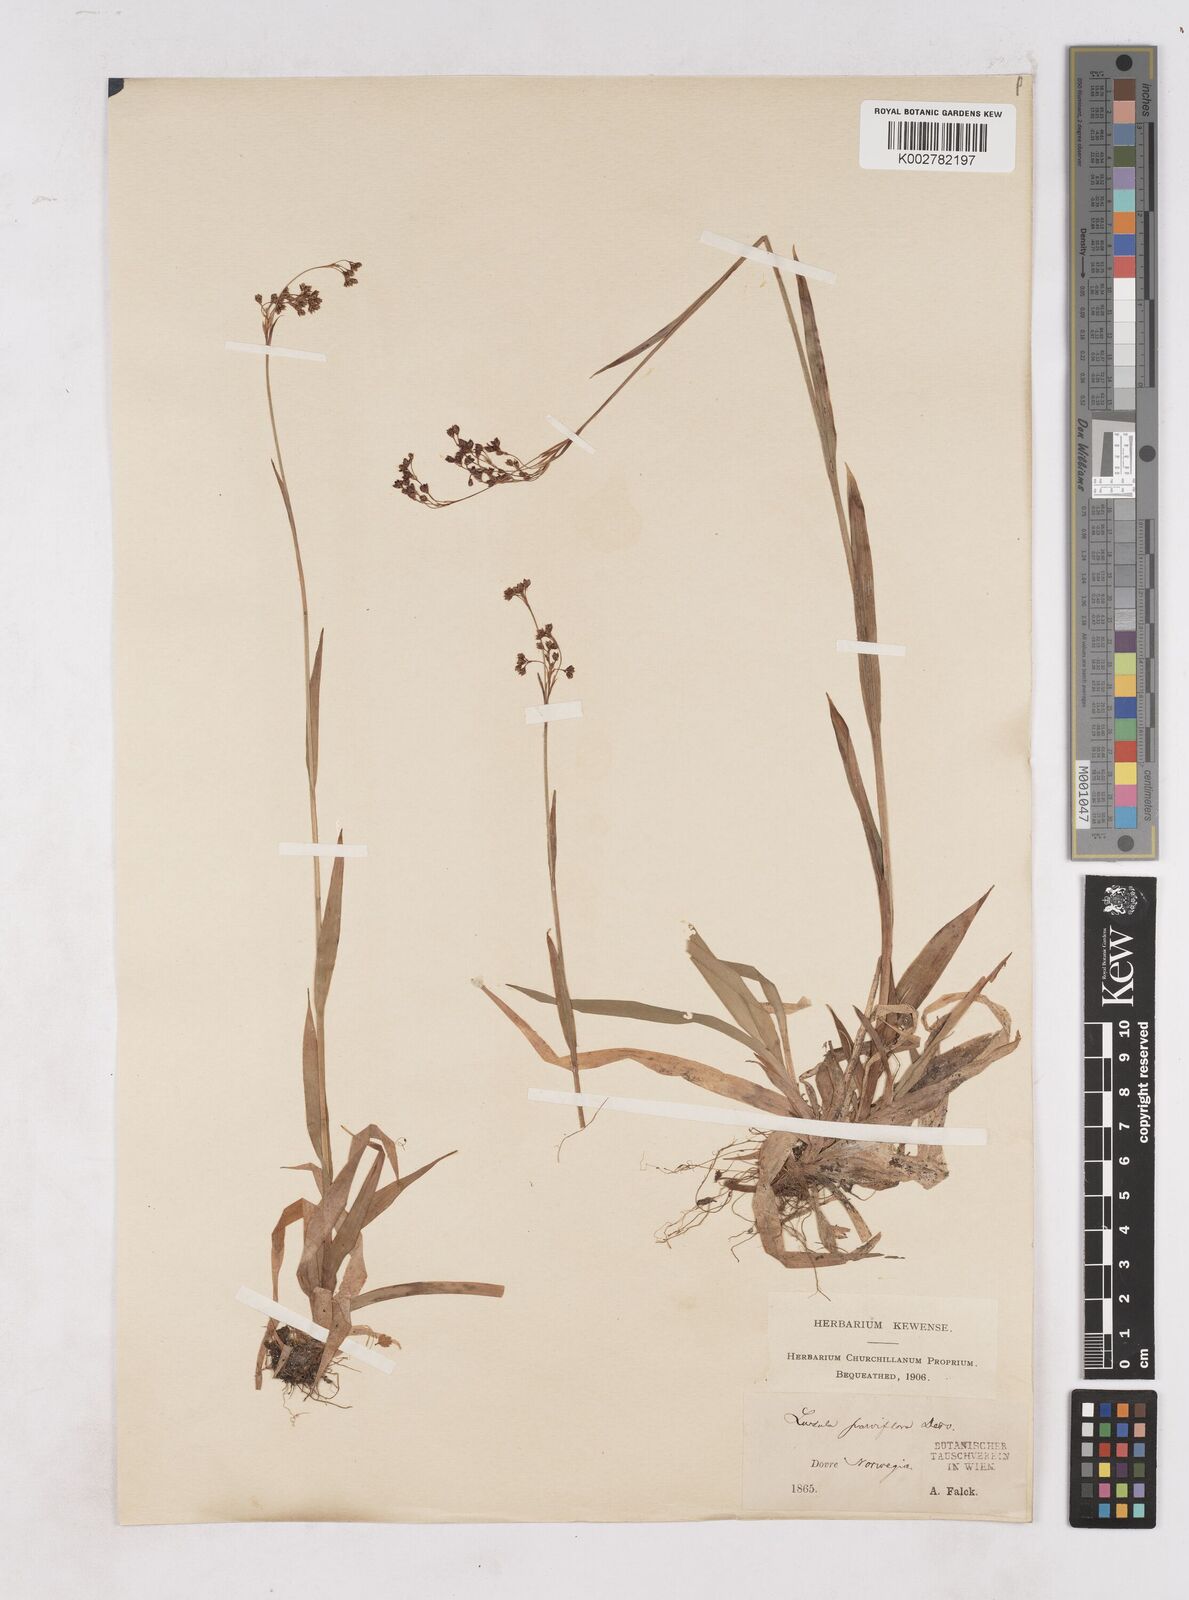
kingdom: Plantae
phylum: Tracheophyta
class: Liliopsida
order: Poales
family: Juncaceae
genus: Luzula
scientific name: Luzula parviflora
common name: Millet woodrush
